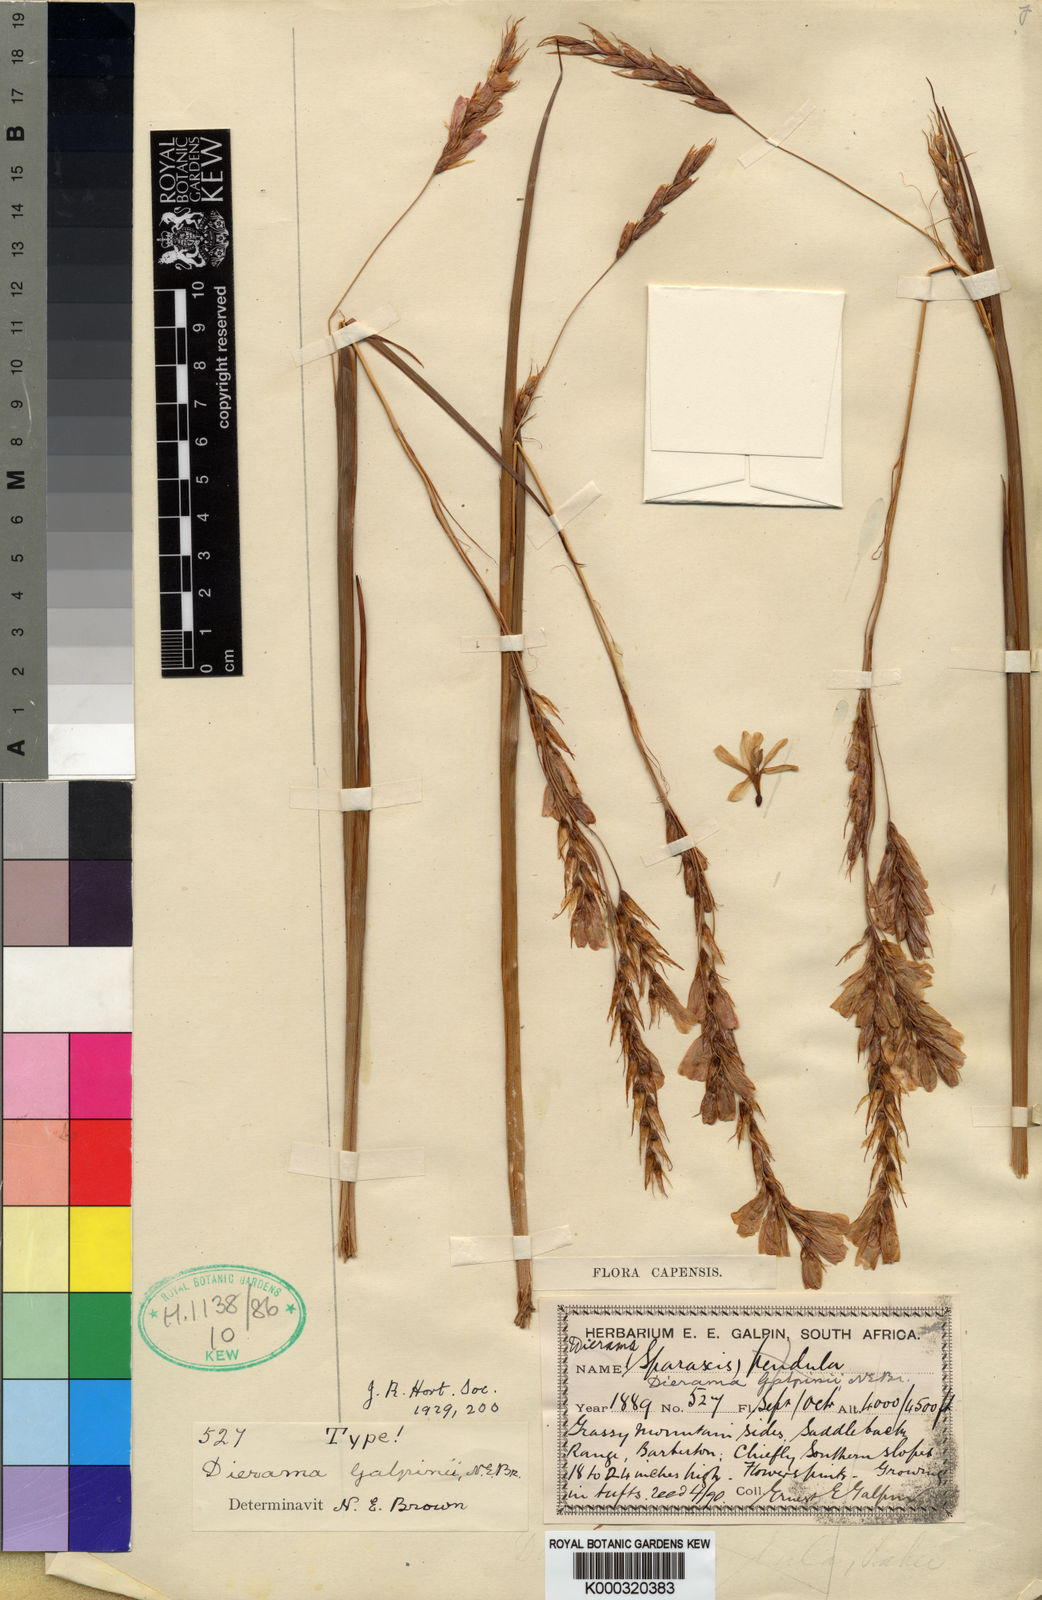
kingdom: Plantae
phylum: Tracheophyta
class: Liliopsida
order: Asparagales
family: Iridaceae
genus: Dierama
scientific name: Dierama galpinii
